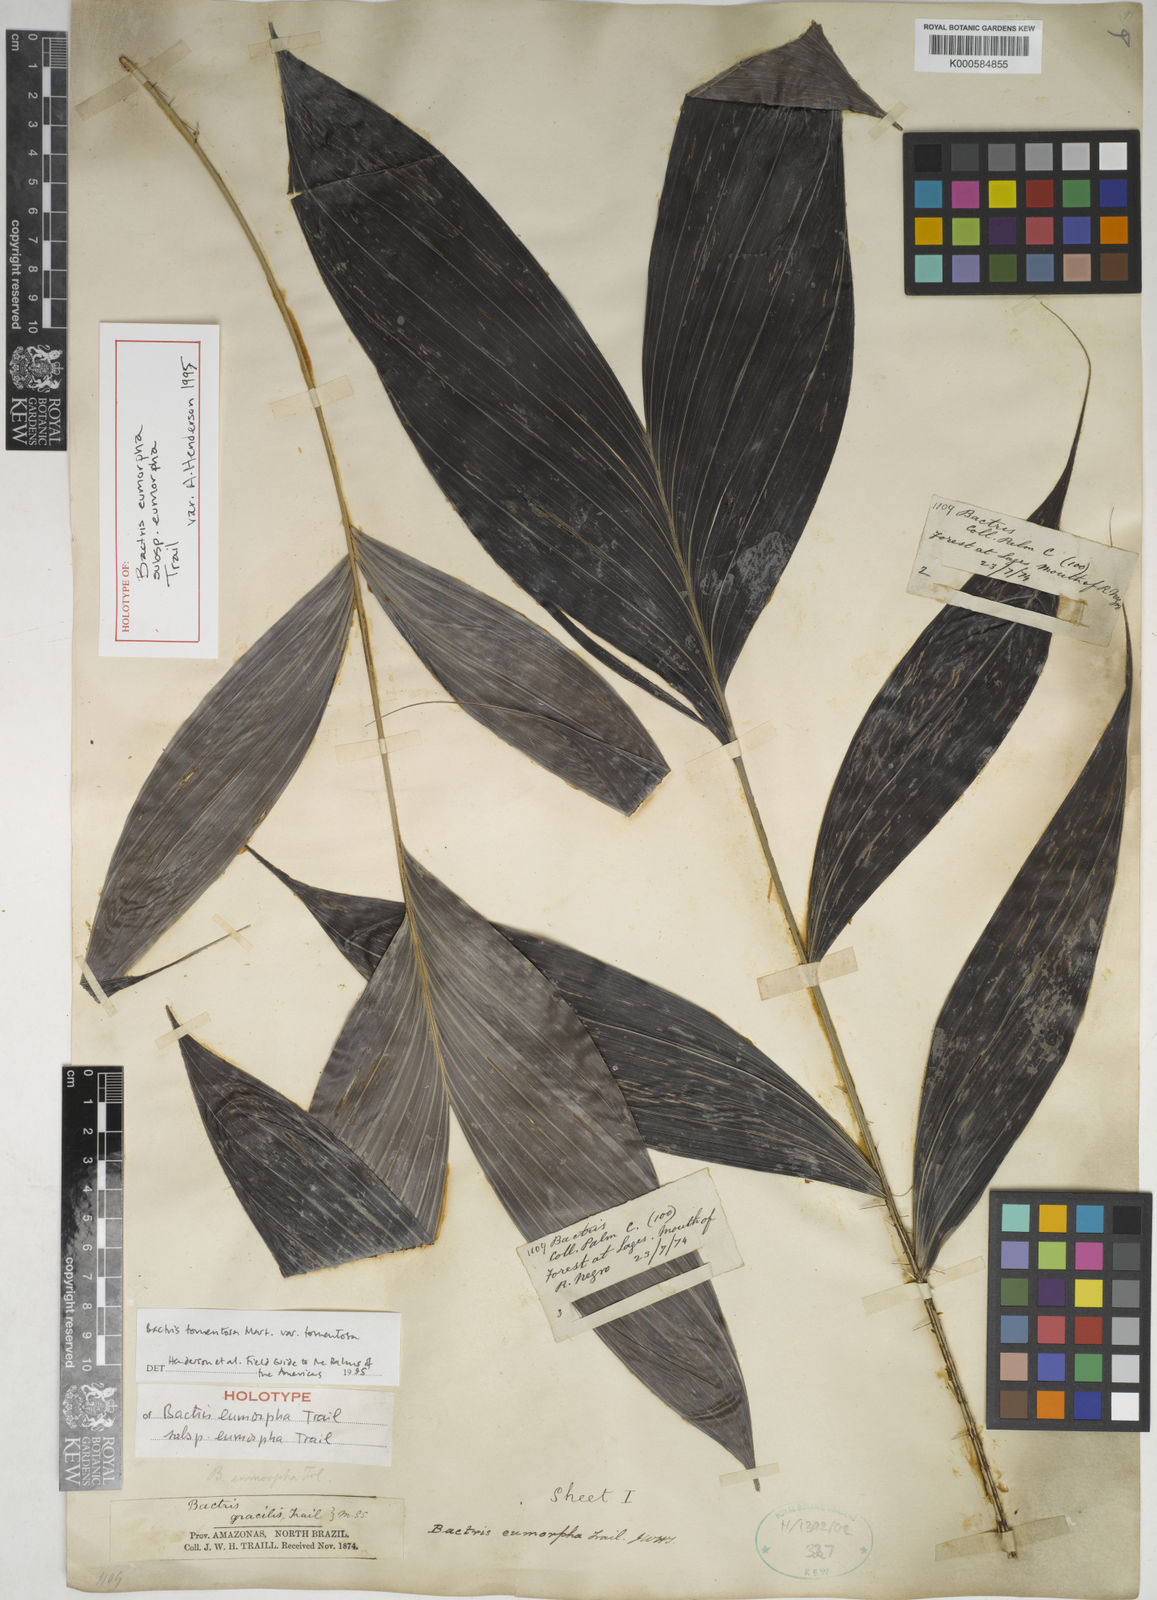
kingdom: Plantae
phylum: Tracheophyta
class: Liliopsida
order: Arecales
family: Arecaceae
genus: Bactris
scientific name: Bactris tomentosa
